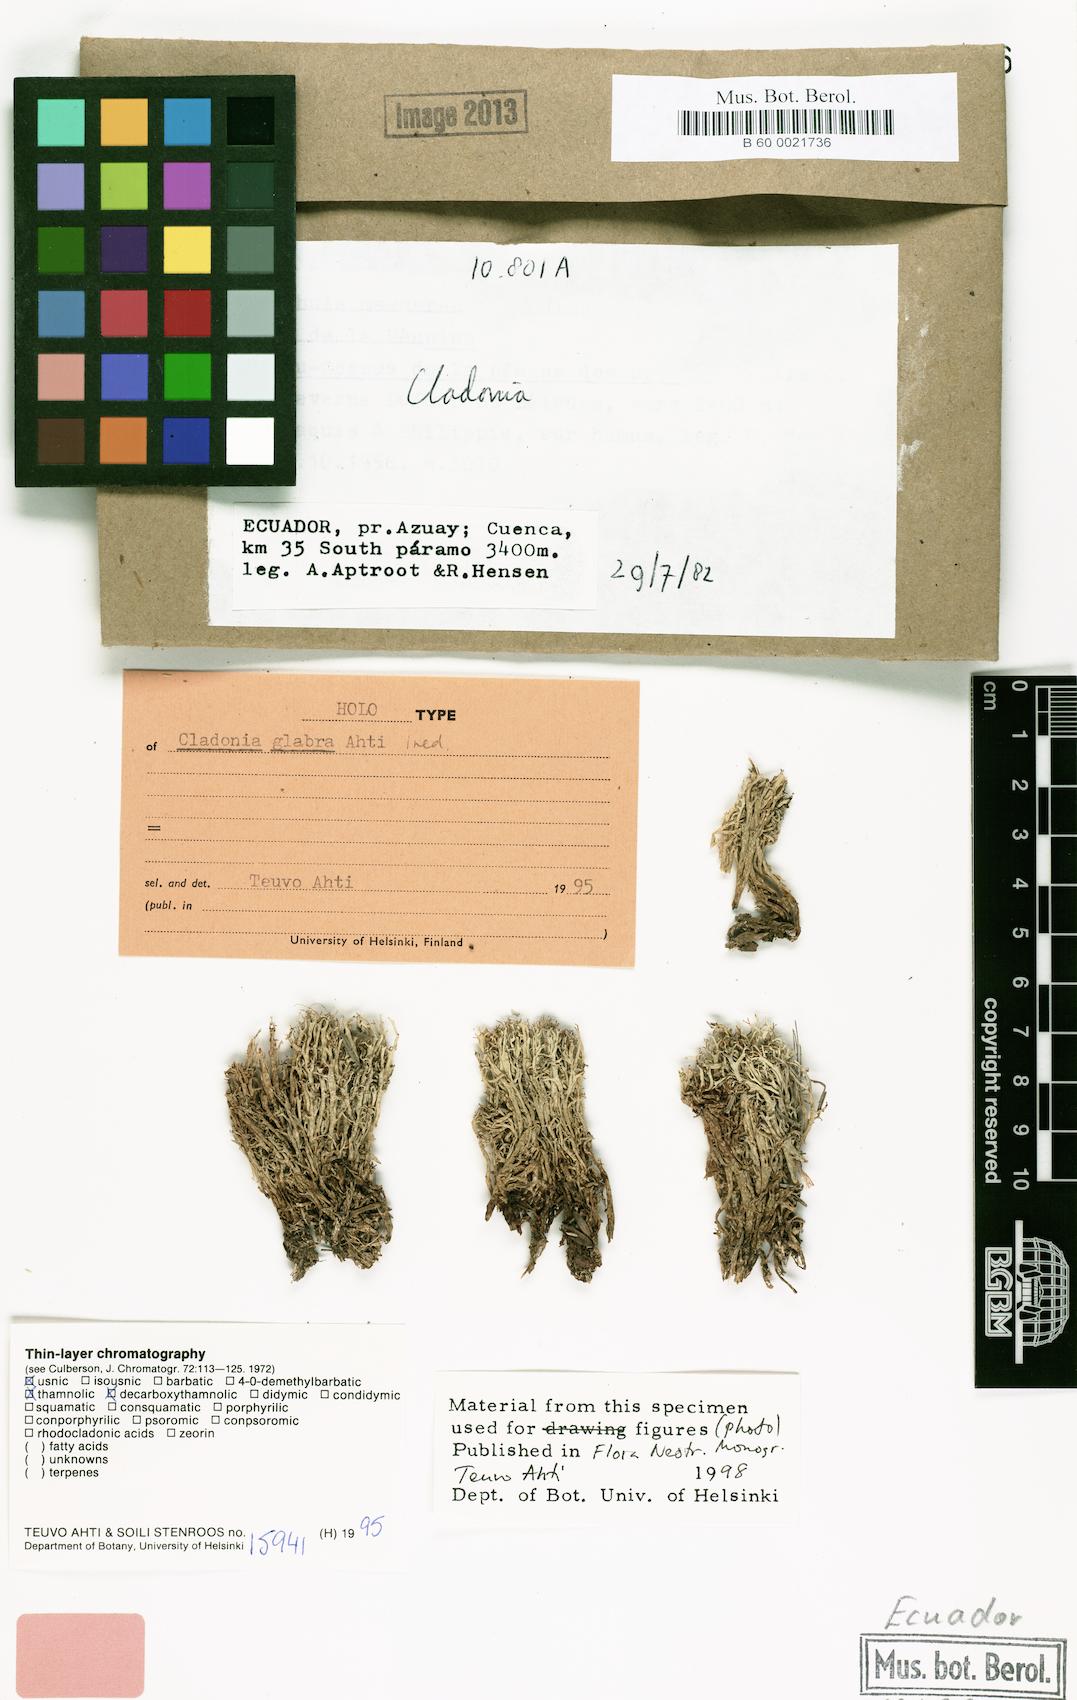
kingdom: Fungi
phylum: Ascomycota
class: Lecanoromycetes
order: Lecanorales
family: Cladoniaceae
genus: Cladonia
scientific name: Cladonia glabra
